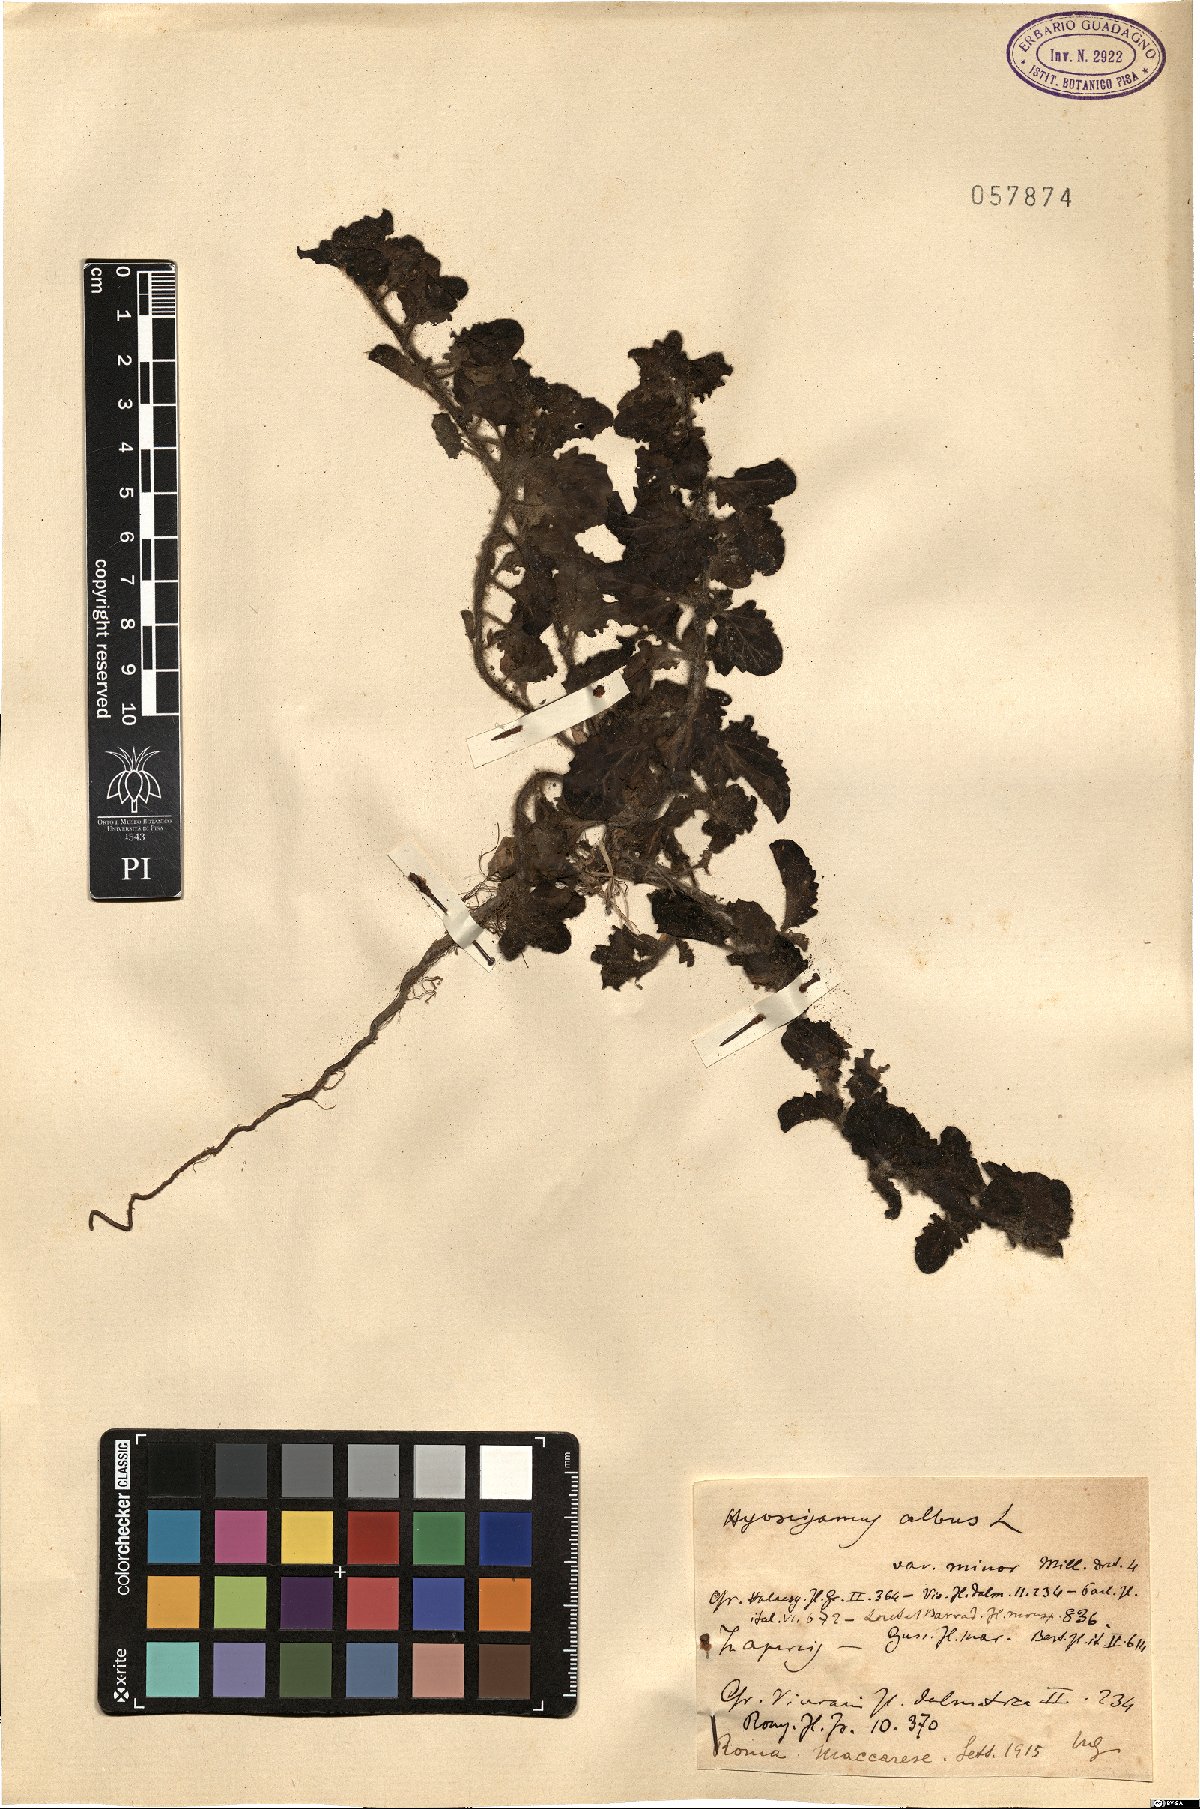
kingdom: Plantae
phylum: Tracheophyta
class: Magnoliopsida
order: Solanales
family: Solanaceae
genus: Hyoscyamus
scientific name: Hyoscyamus albus
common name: White henbane
